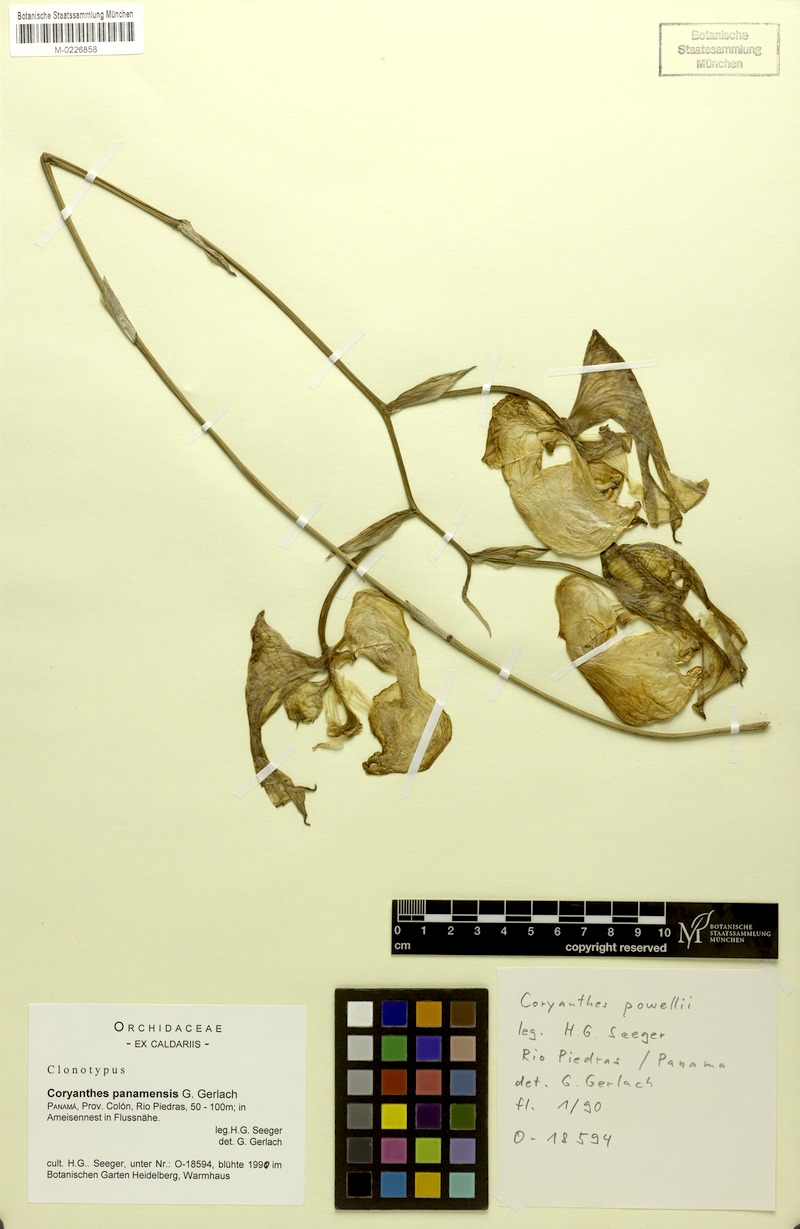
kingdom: Plantae
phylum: Tracheophyta
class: Liliopsida
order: Asparagales
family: Orchidaceae
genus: Coryanthes
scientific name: Coryanthes panamensis
